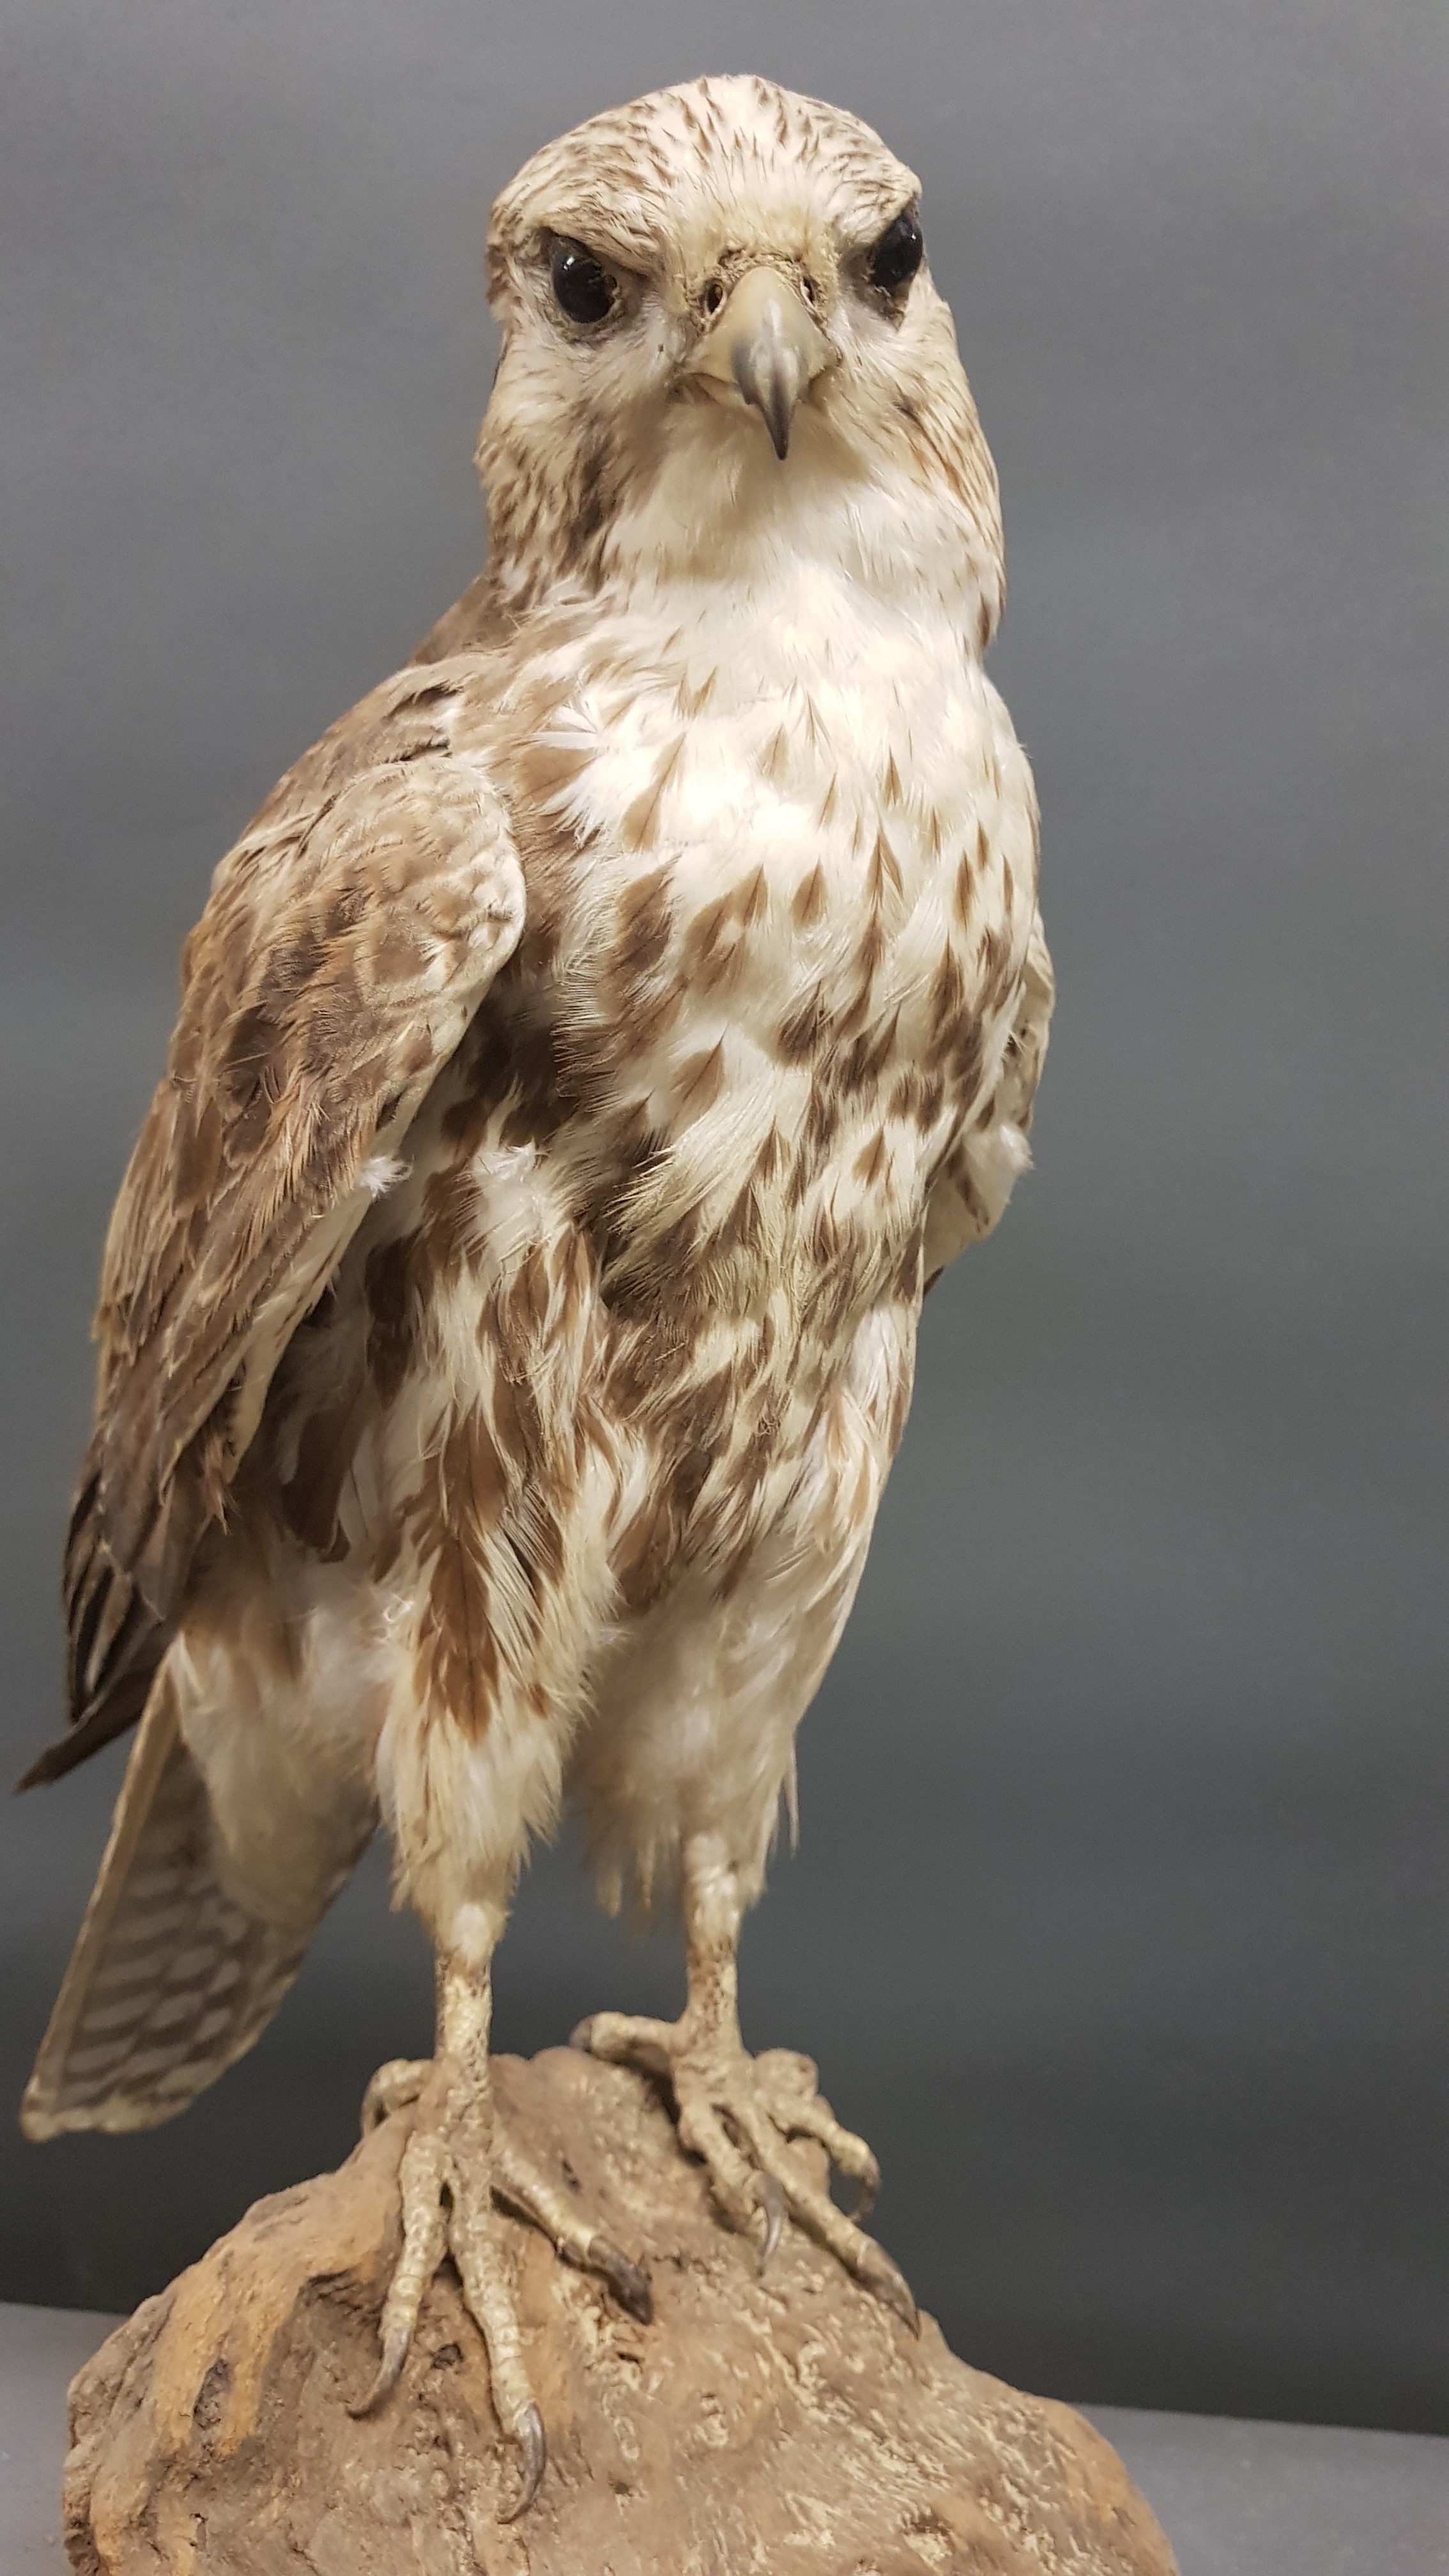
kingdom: Animalia
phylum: Chordata
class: Aves
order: Falconiformes
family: Falconidae
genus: Falco
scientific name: Falco cherrug
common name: Saker falcon
